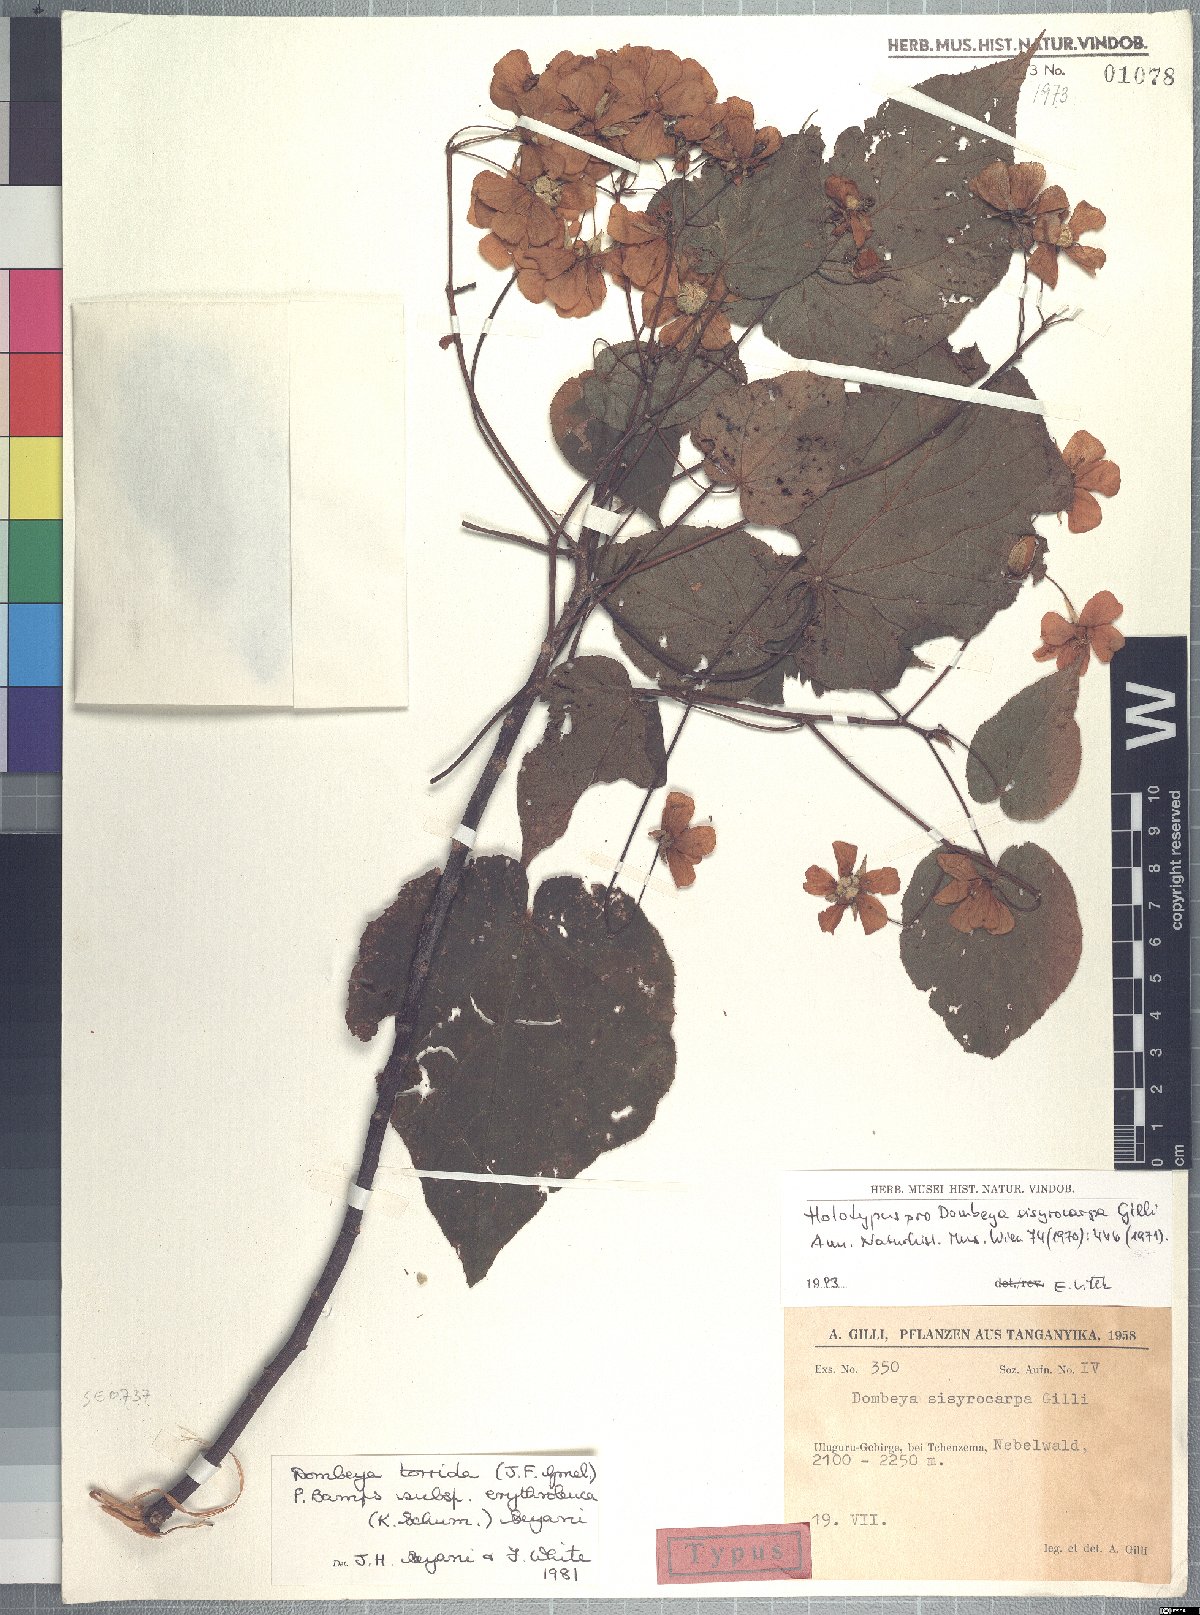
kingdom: Plantae
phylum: Tracheophyta
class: Magnoliopsida
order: Malvales
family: Malvaceae
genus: Dombeya
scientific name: Dombeya torrida
